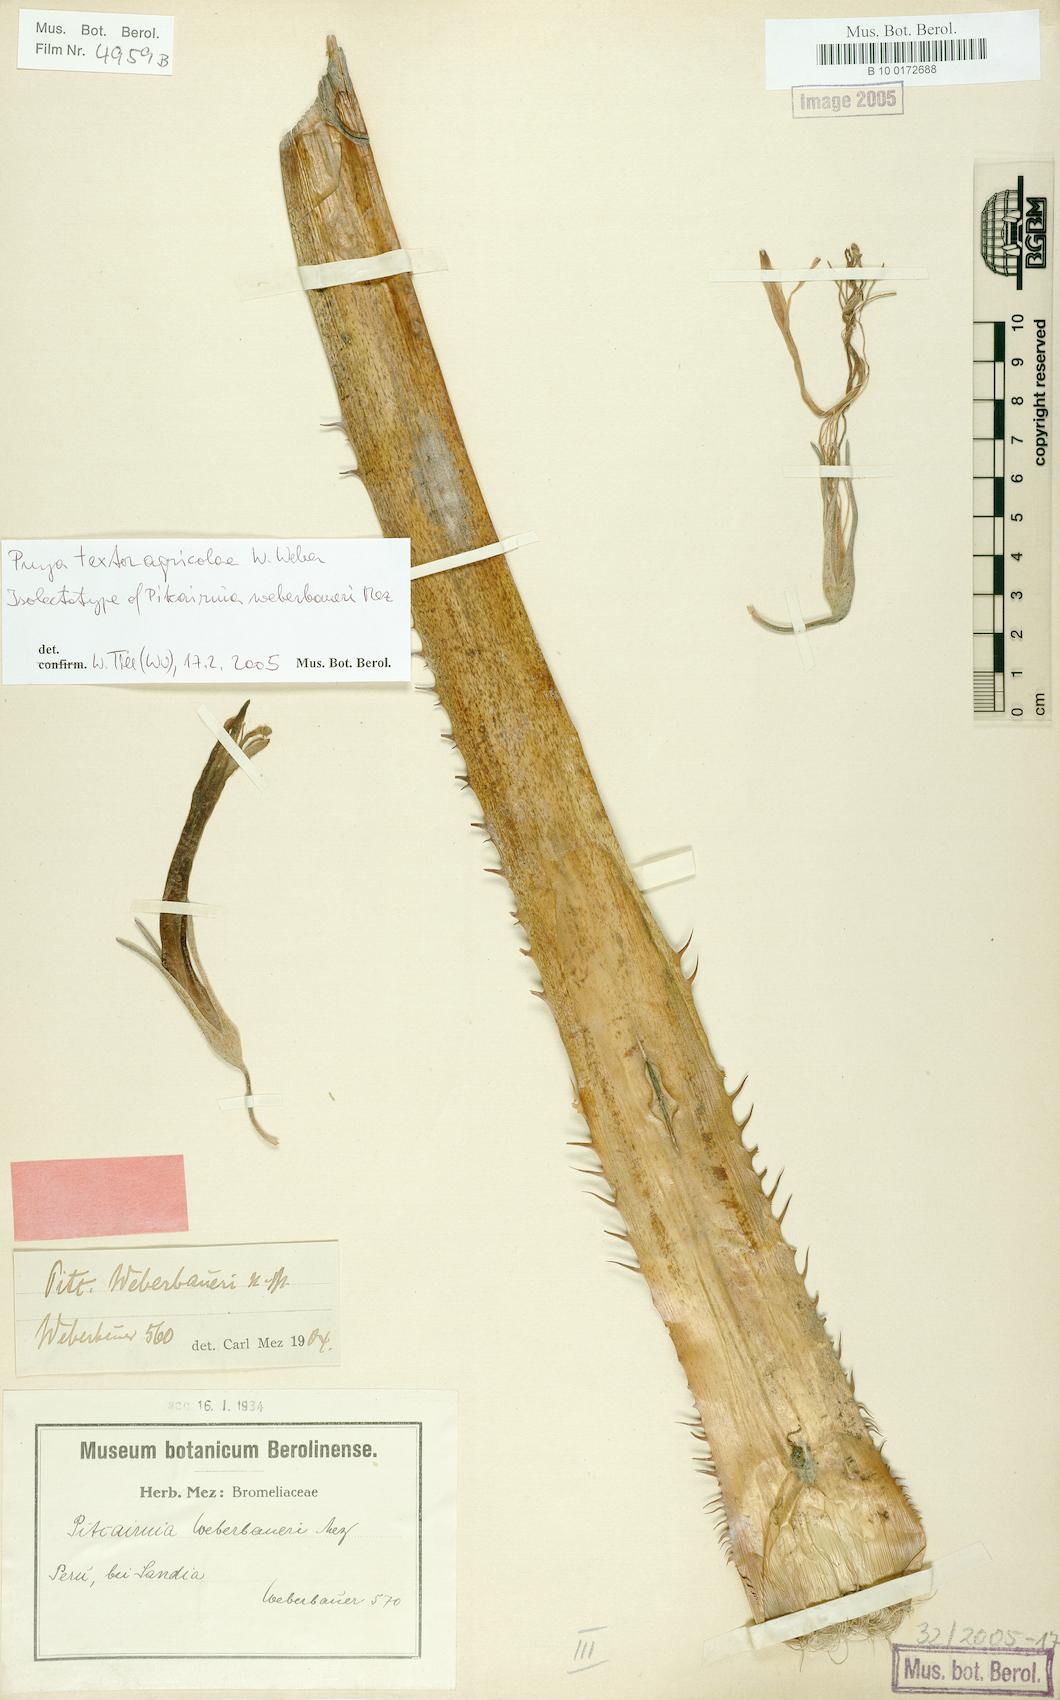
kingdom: Plantae
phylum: Tracheophyta
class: Liliopsida
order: Poales
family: Bromeliaceae
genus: Puya
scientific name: Puya textoragicolae
